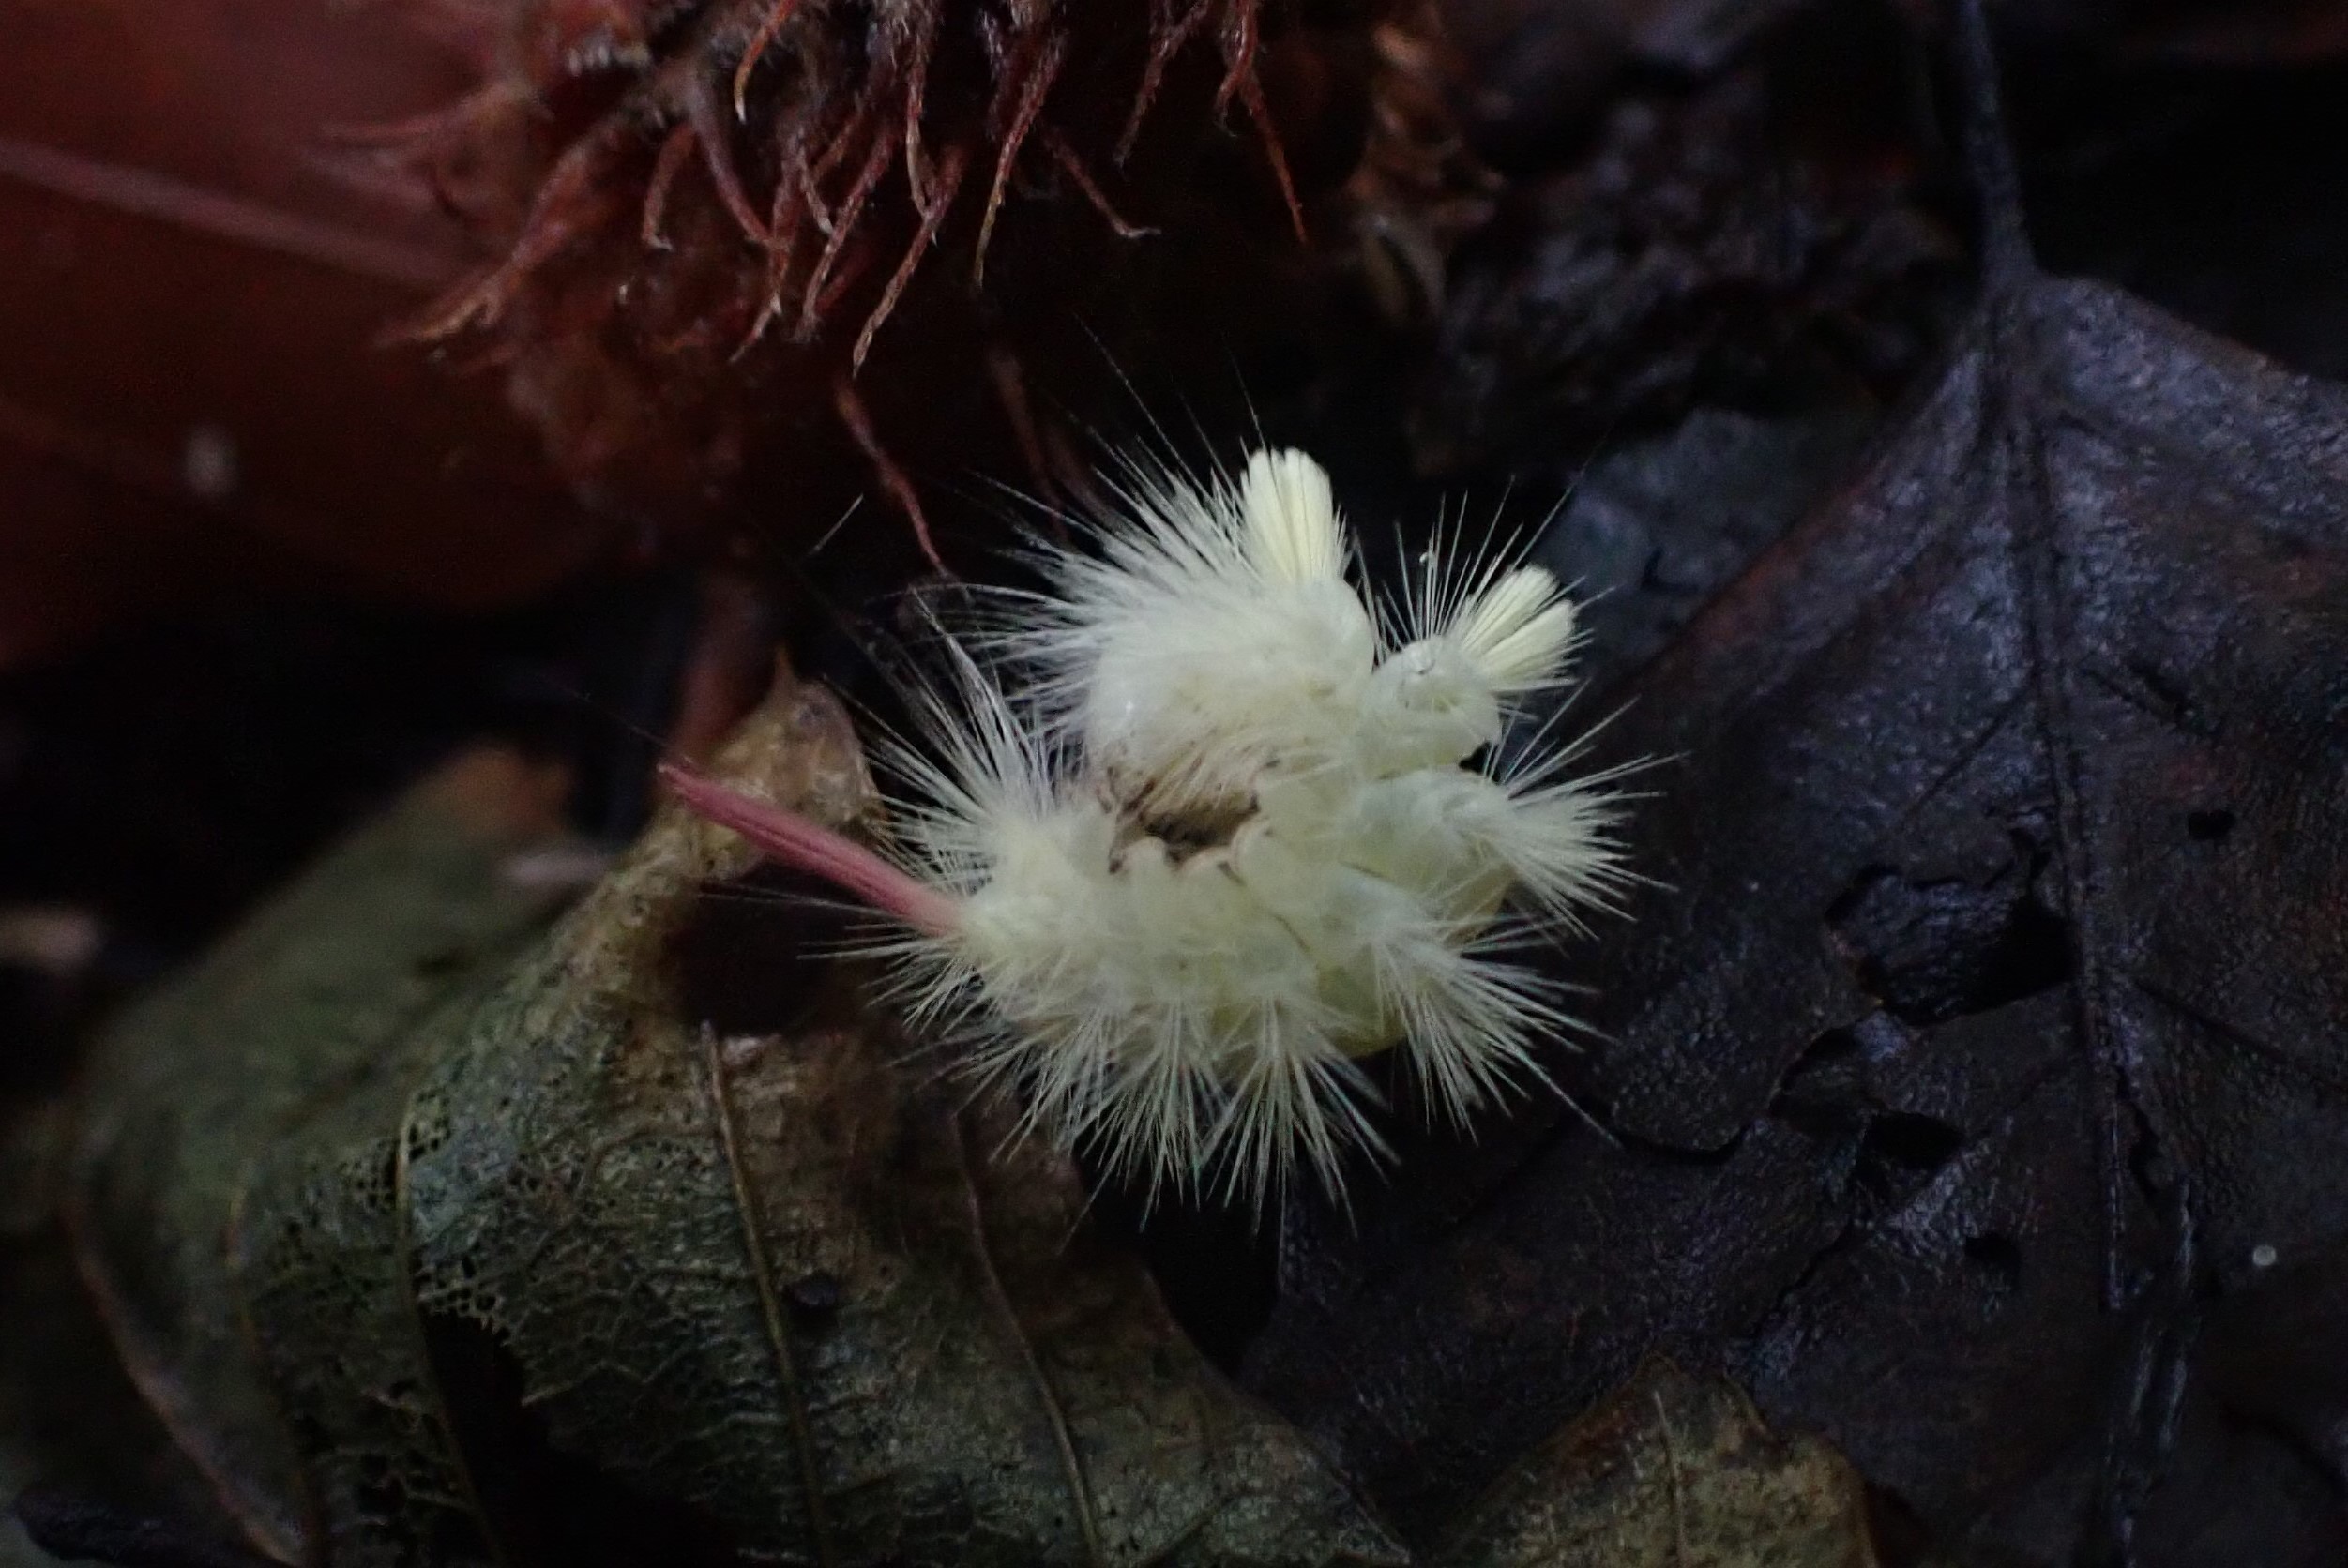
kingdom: Animalia
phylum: Arthropoda
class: Insecta
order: Lepidoptera
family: Erebidae
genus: Calliteara
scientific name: Calliteara pudibunda
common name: Bøgenonne
